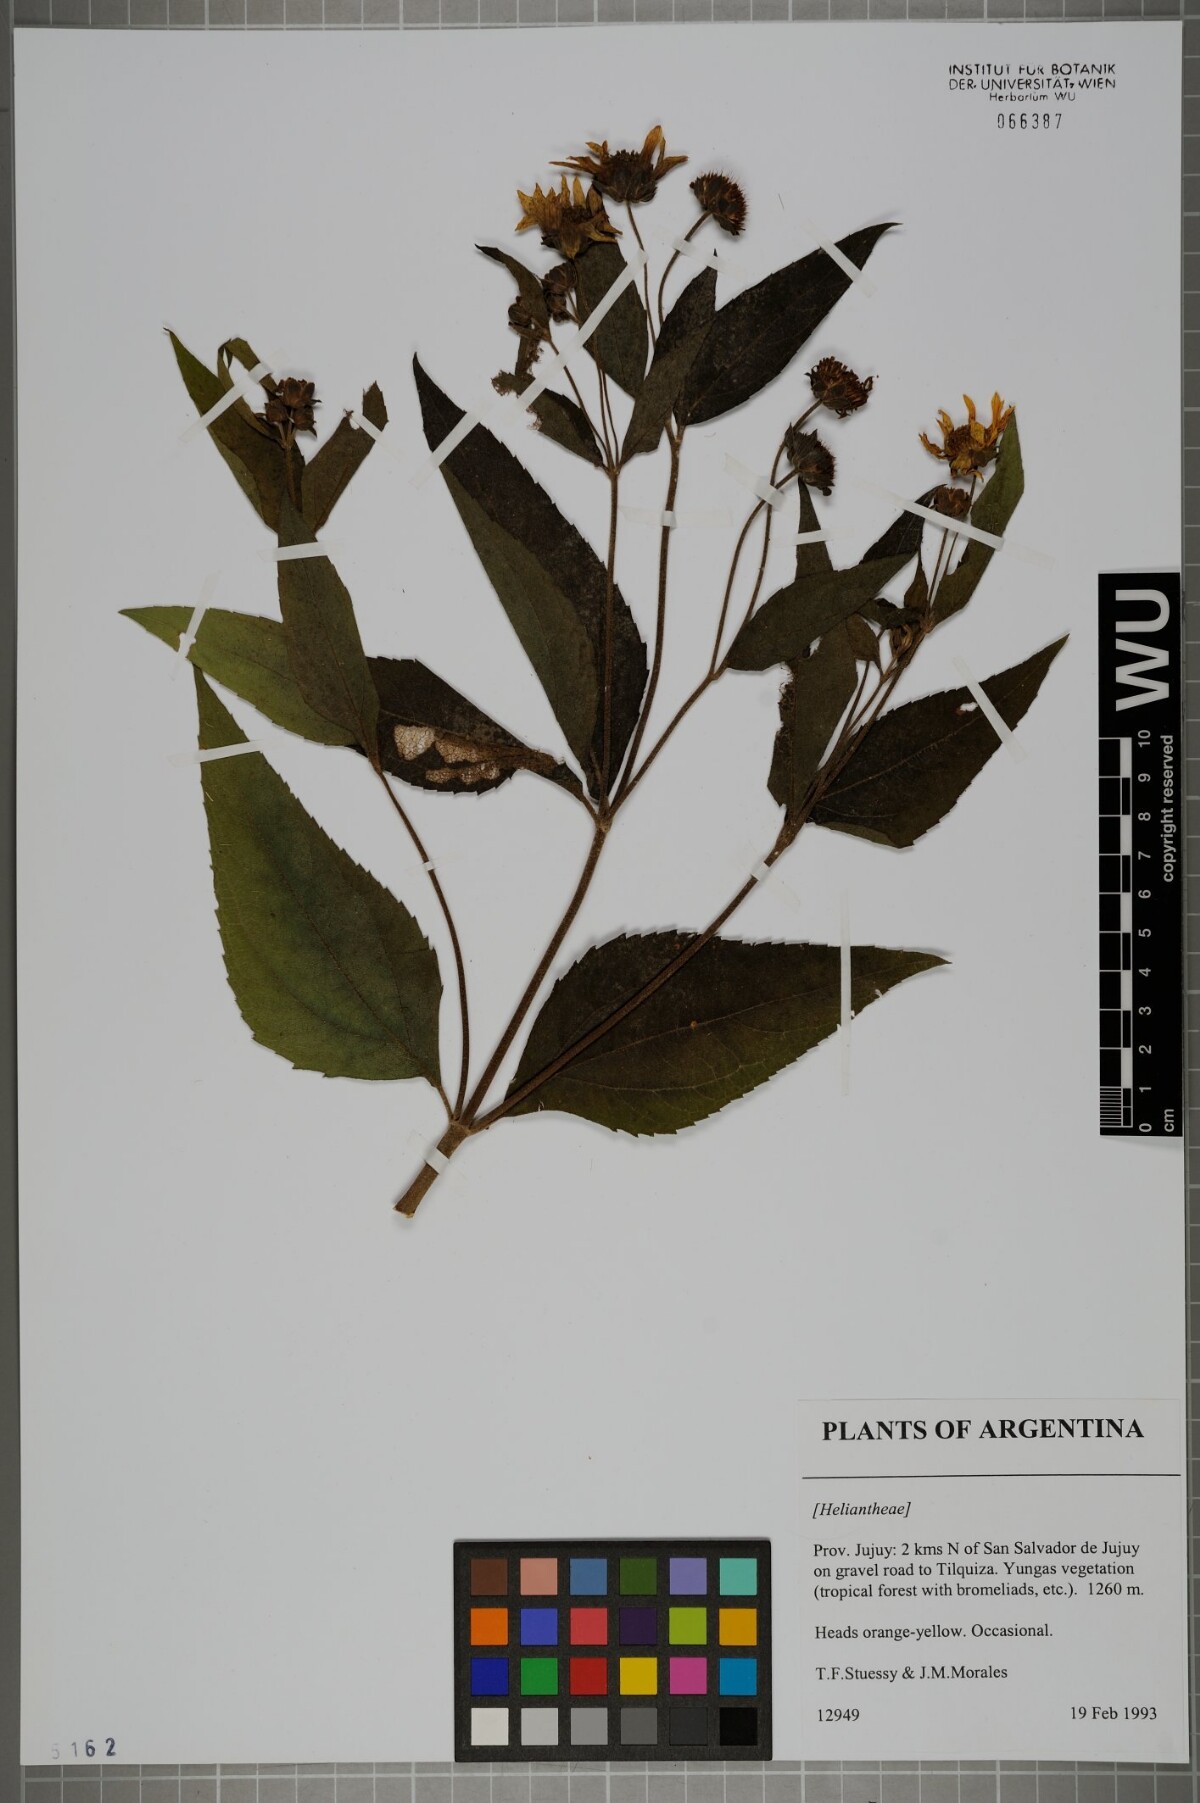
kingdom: Plantae
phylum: Tracheophyta
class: Magnoliopsida
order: Asterales
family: Asteraceae
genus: Heliantheae
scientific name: Heliantheae
